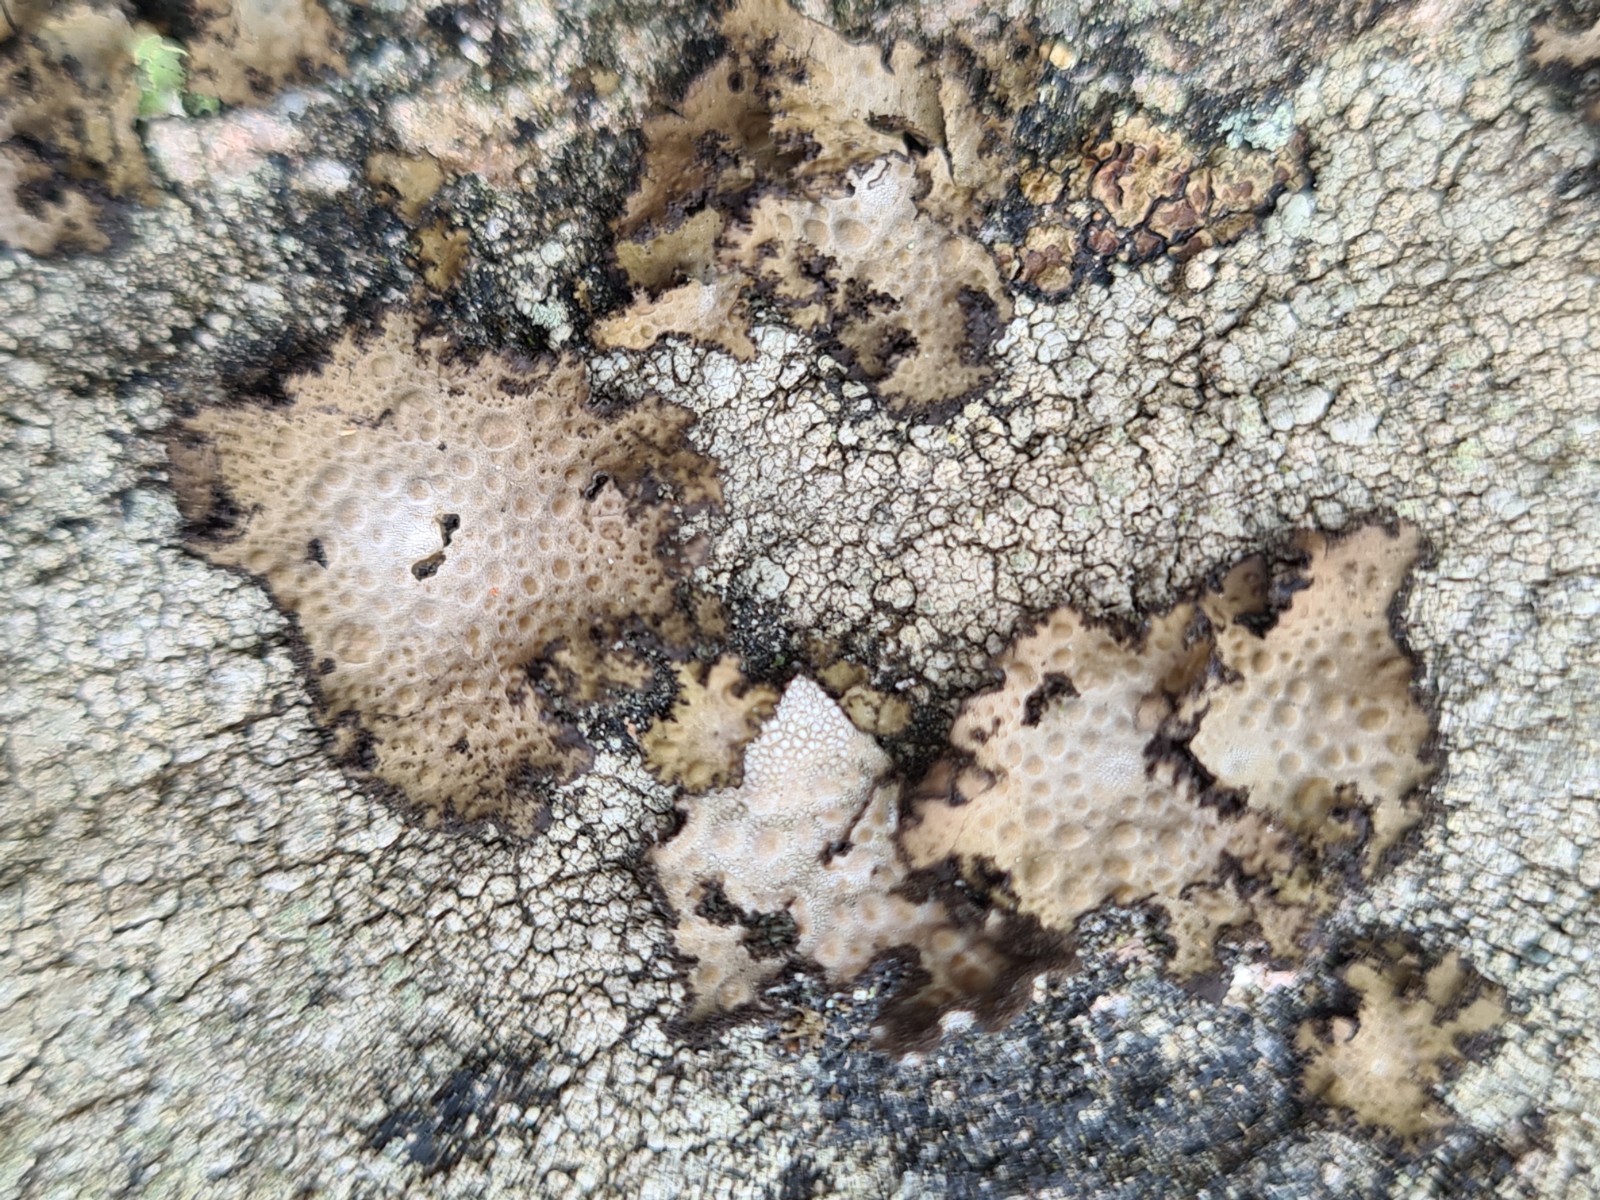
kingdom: Fungi
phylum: Ascomycota
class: Lecanoromycetes
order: Umbilicariales
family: Umbilicariaceae
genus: Lasallia
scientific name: Lasallia pustulata
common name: buklet navlelav
